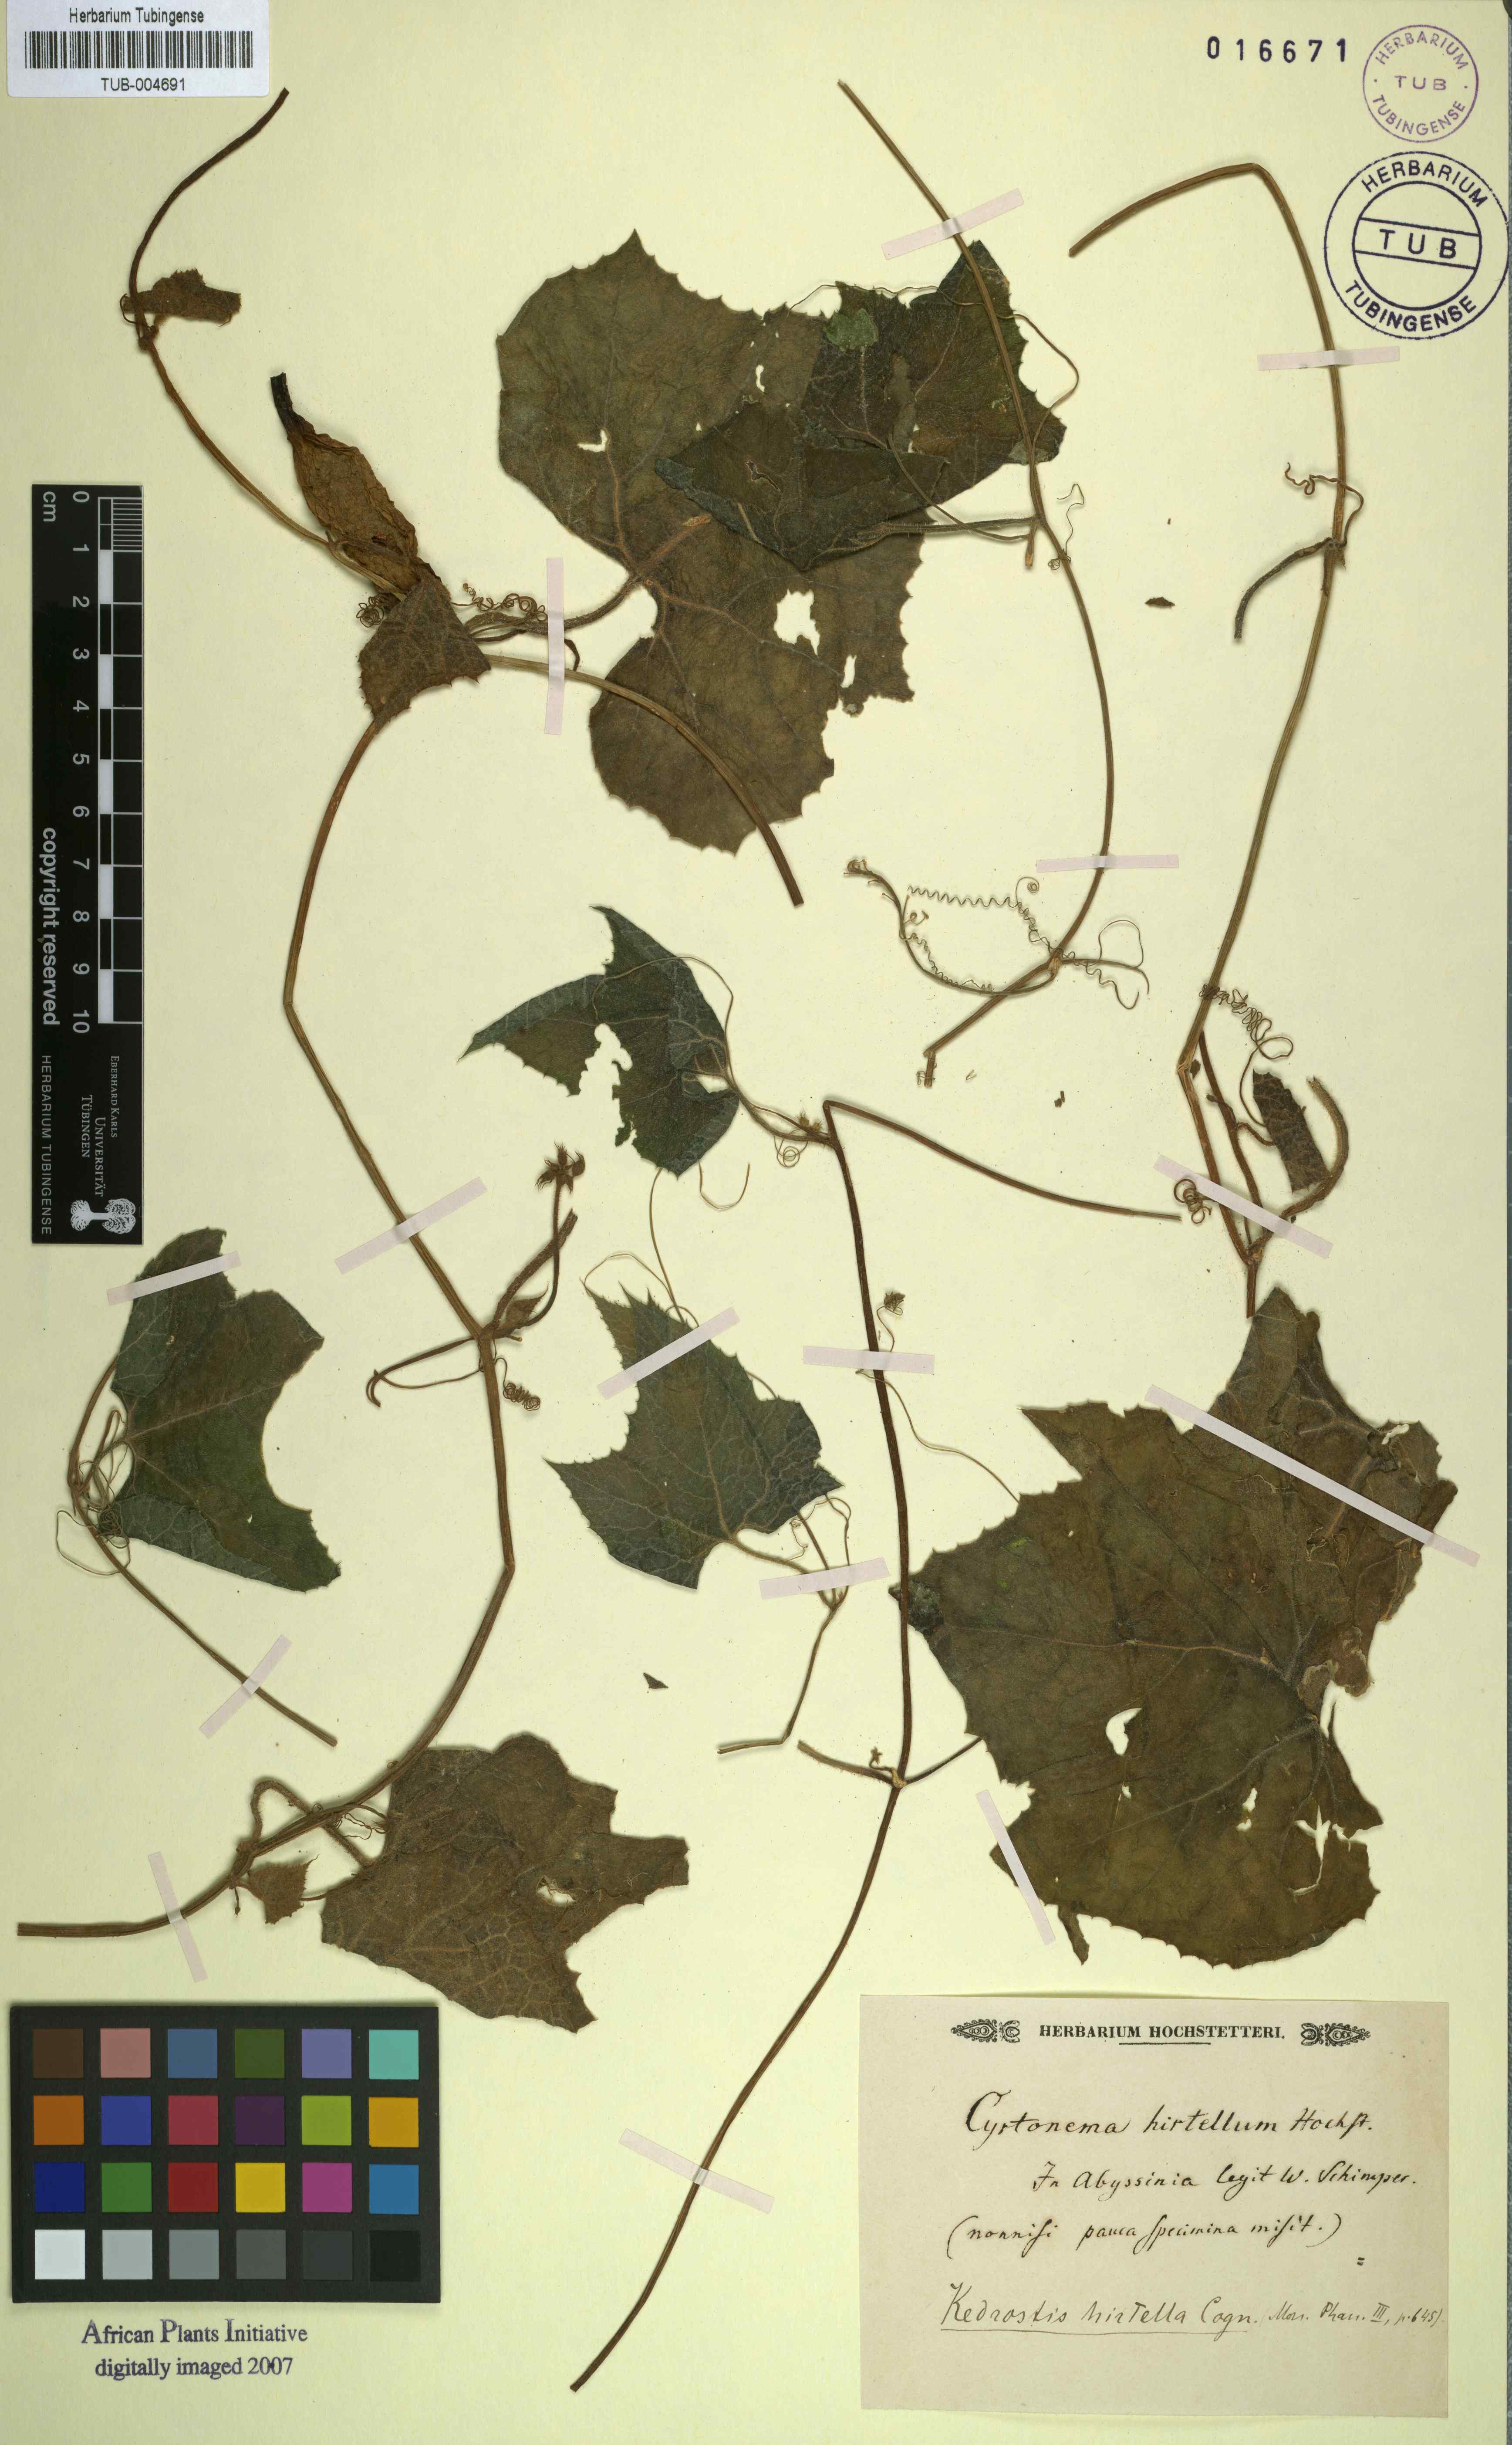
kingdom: Plantae
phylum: Tracheophyta
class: Magnoliopsida
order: Cucurbitales
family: Cucurbitaceae
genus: Kedrostis
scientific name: Kedrostis hirtella
